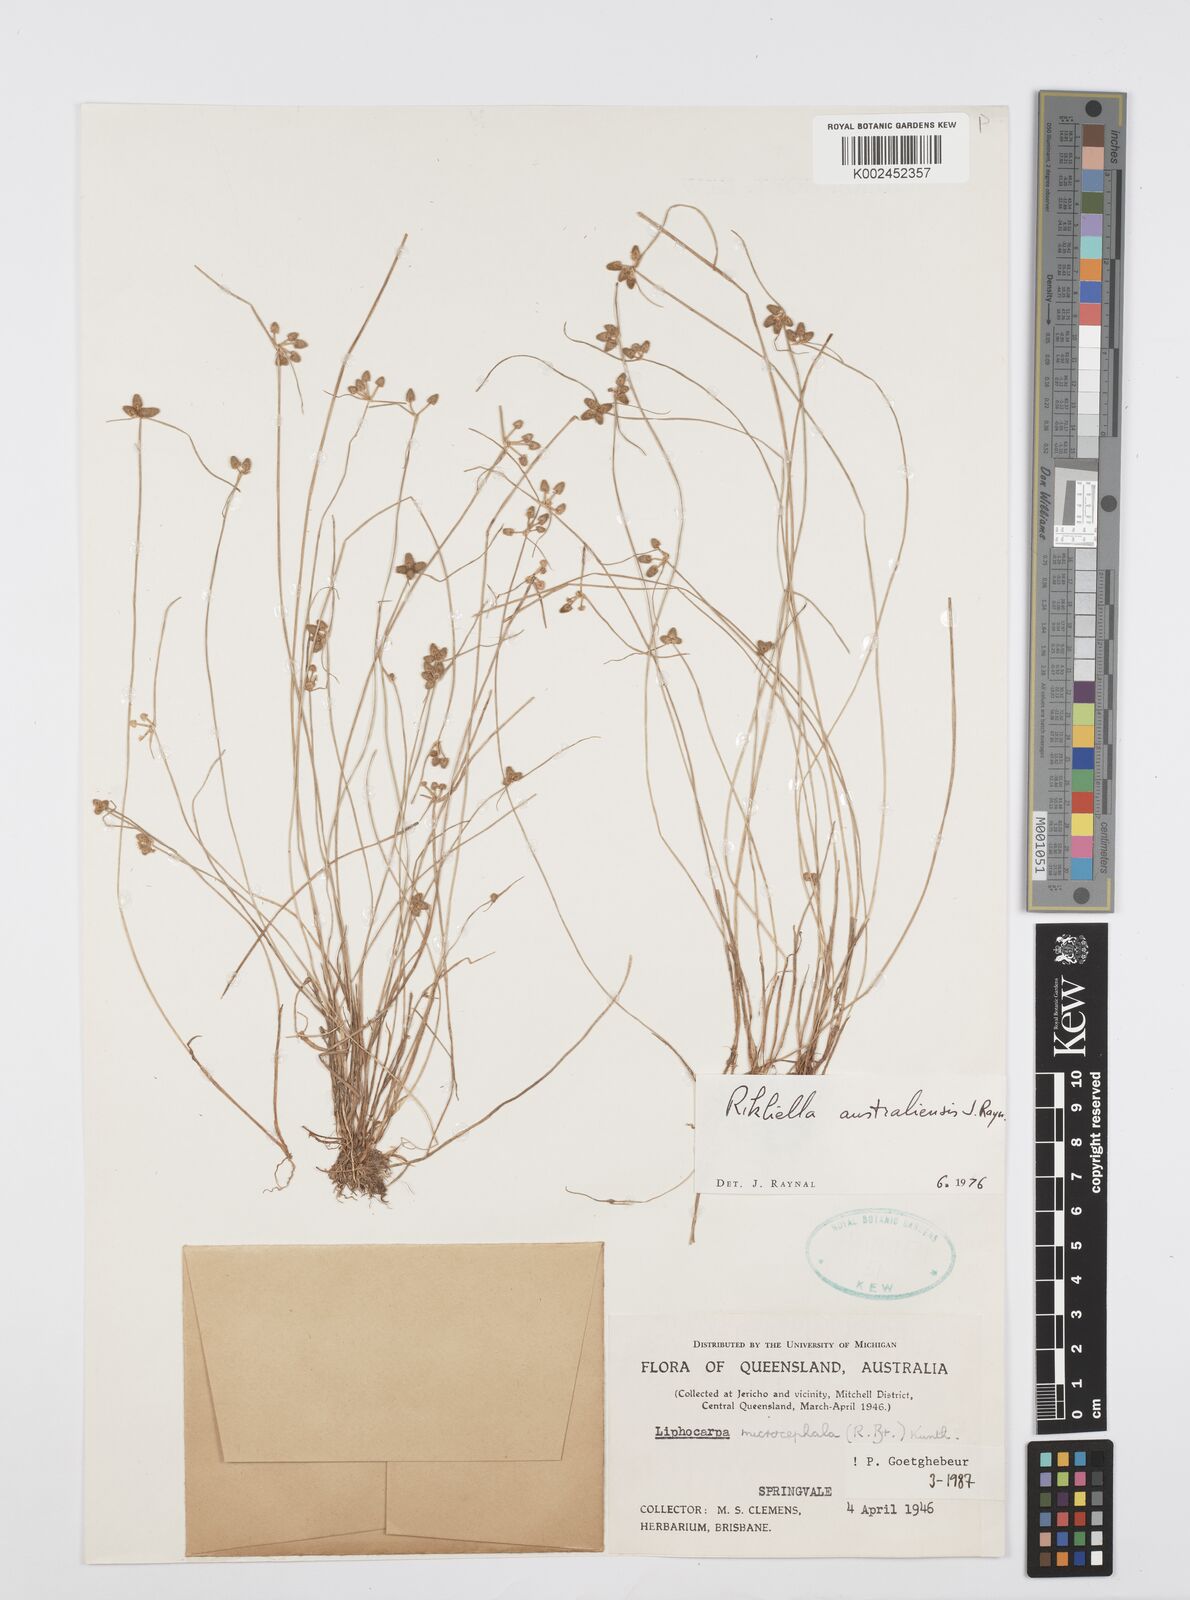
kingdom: Plantae
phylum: Tracheophyta
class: Liliopsida
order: Poales
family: Cyperaceae
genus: Cyperus
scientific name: Cyperus microcephalus
